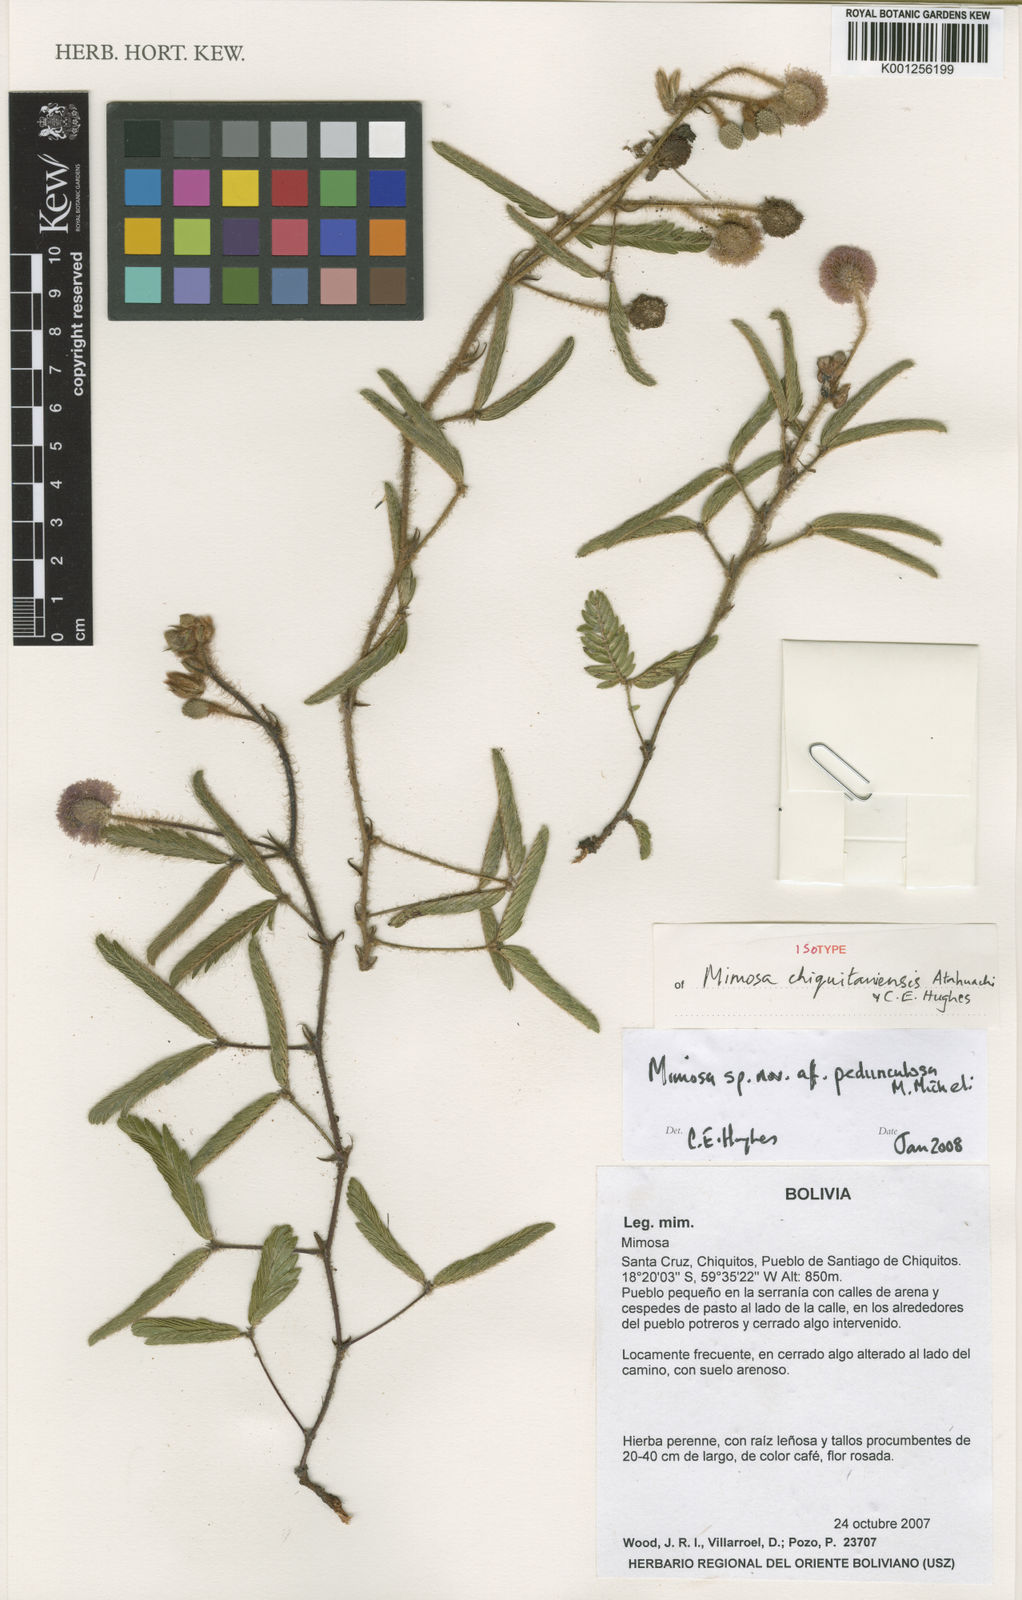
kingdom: Plantae
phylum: Tracheophyta
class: Magnoliopsida
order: Fabales
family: Fabaceae
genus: Mimosa
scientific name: Mimosa chiquitaniensis
